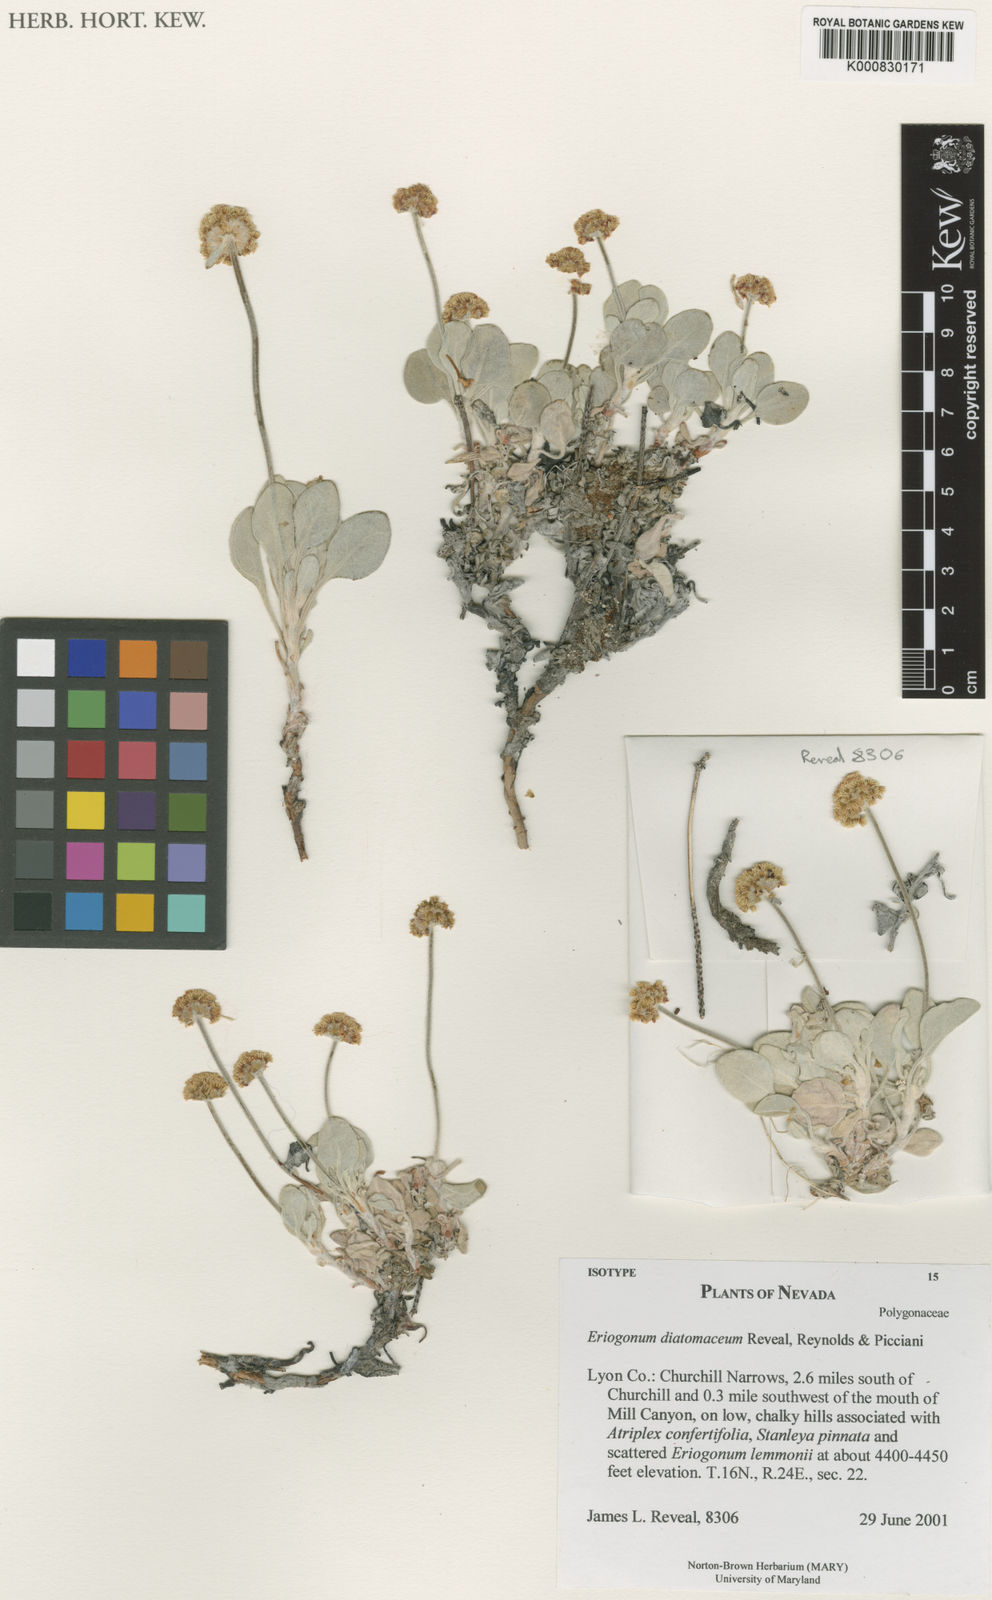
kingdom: Plantae
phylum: Tracheophyta
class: Magnoliopsida
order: Caryophyllales
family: Polygonaceae
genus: Eriogonum
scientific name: Eriogonum diatomaceum
